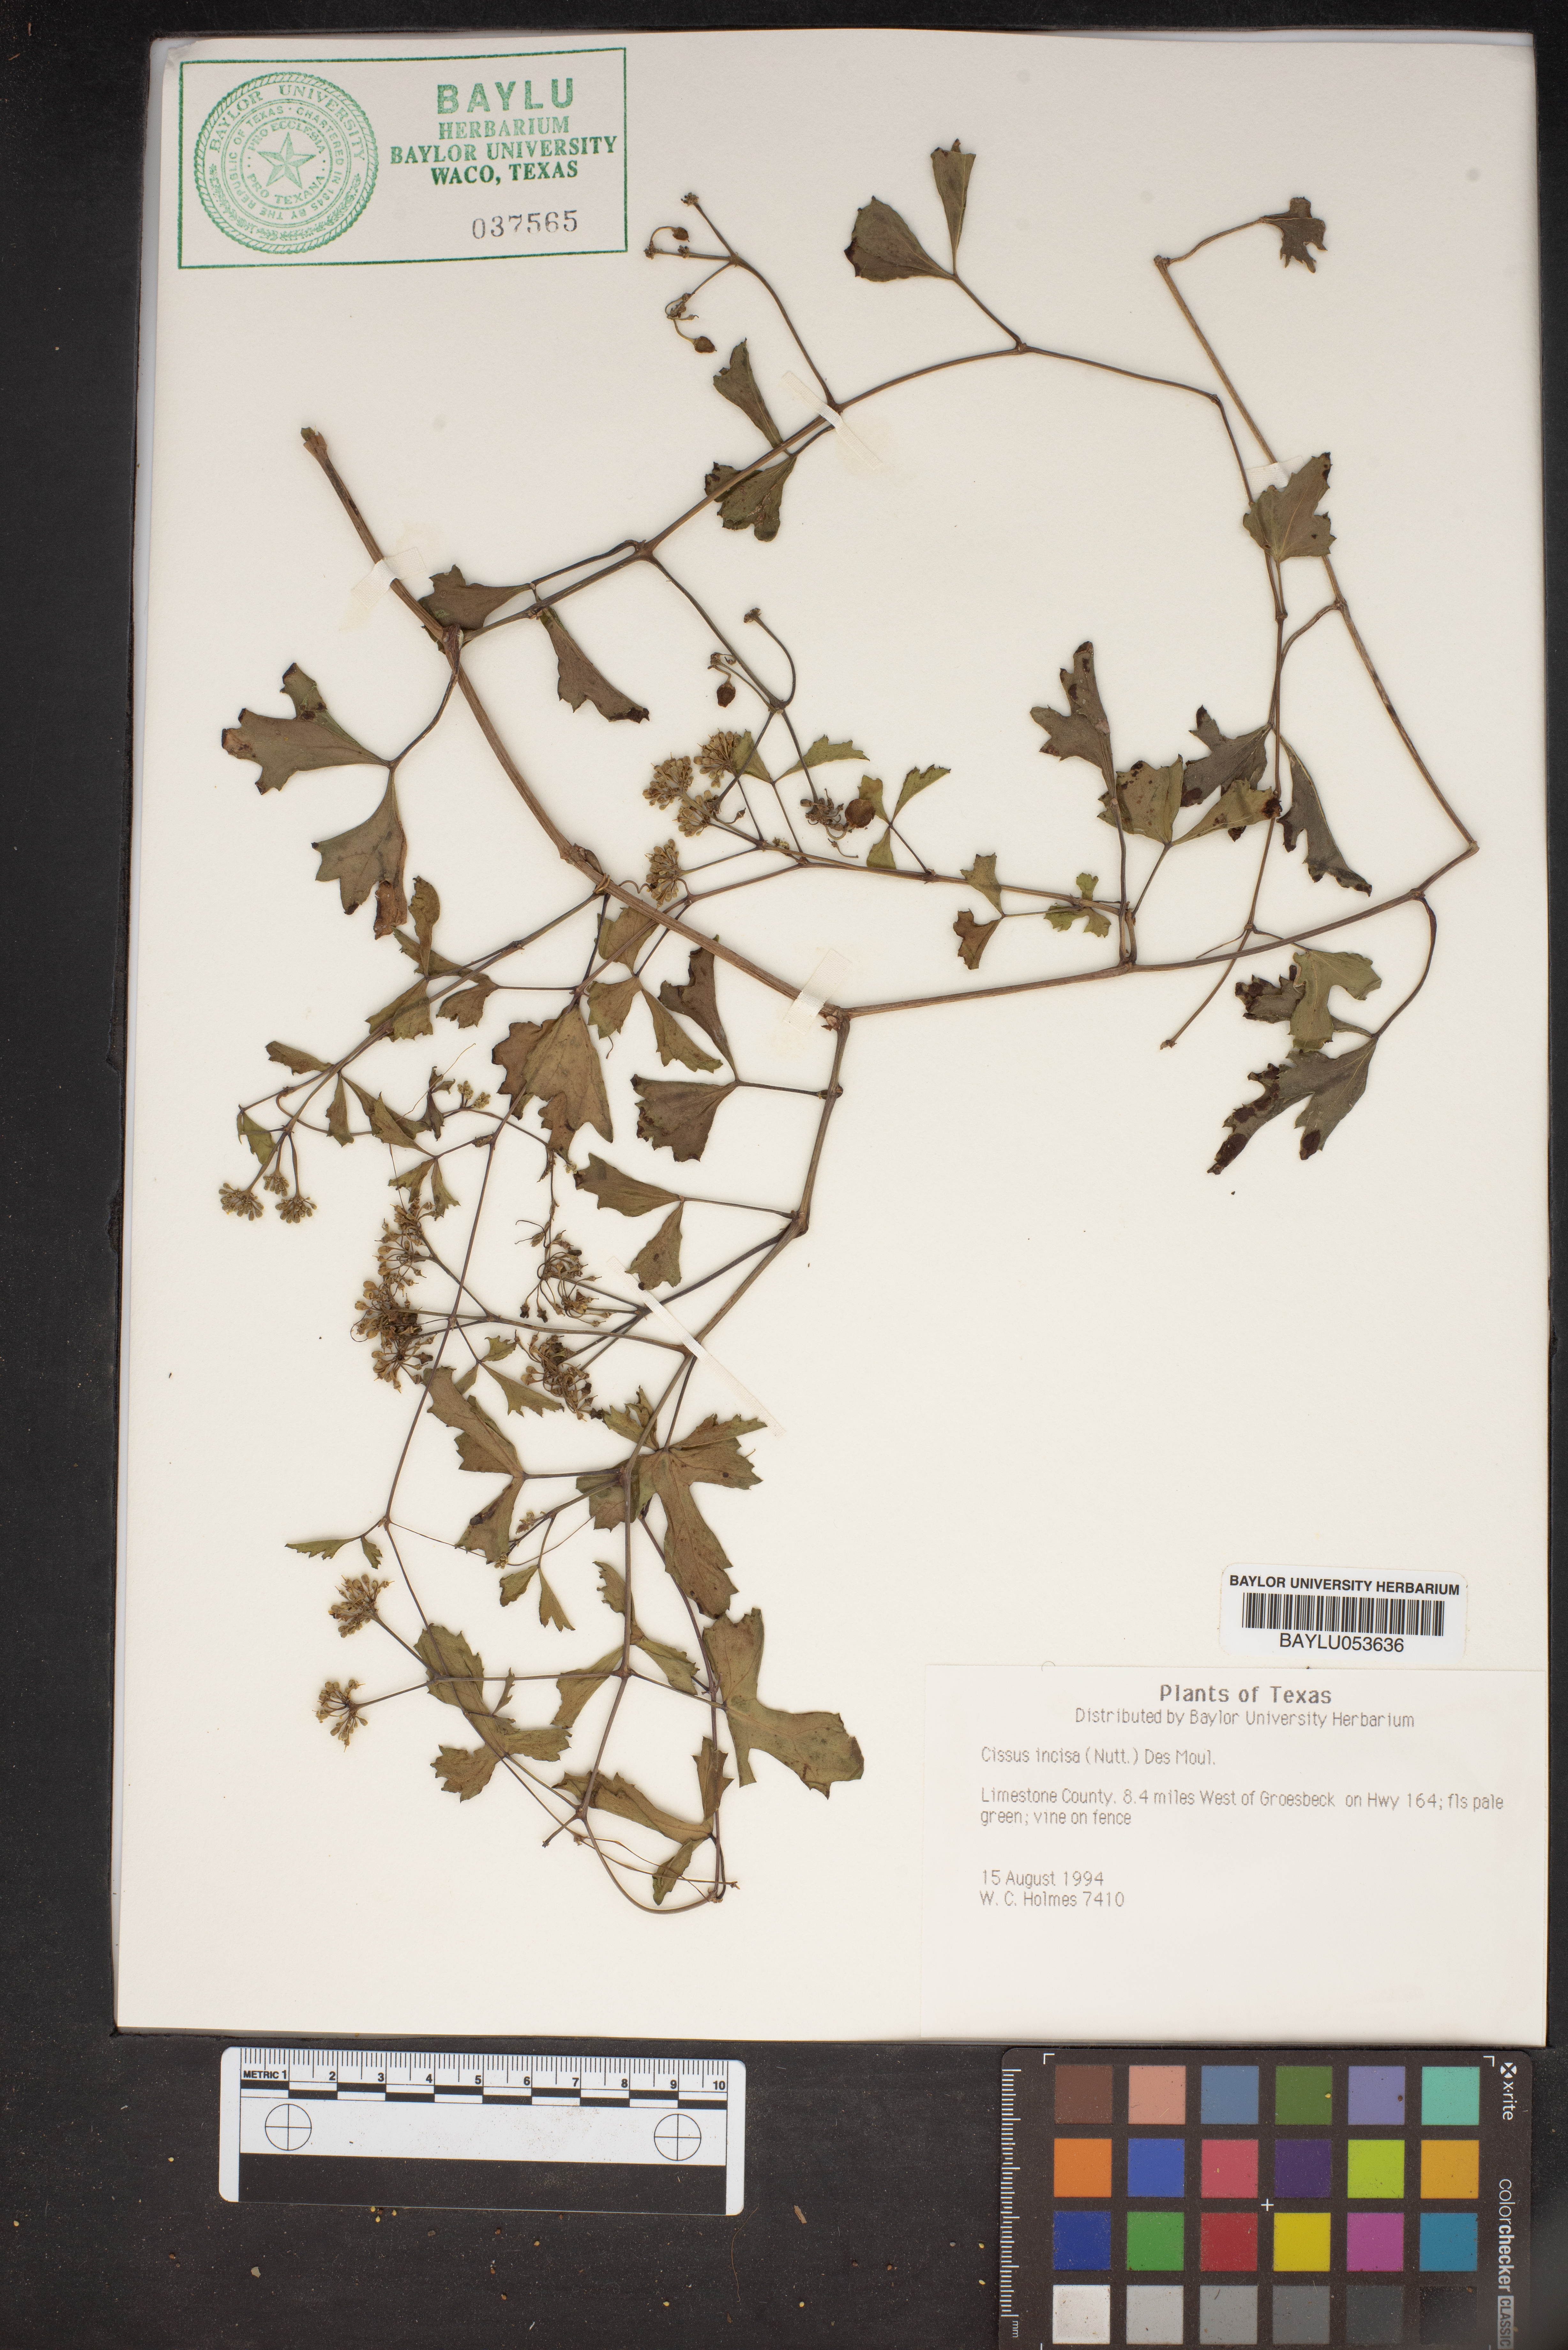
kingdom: Plantae
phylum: Tracheophyta
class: Magnoliopsida
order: Vitales
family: Vitaceae
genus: Cissus
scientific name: Cissus trifoliata
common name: Vine-sorrel
